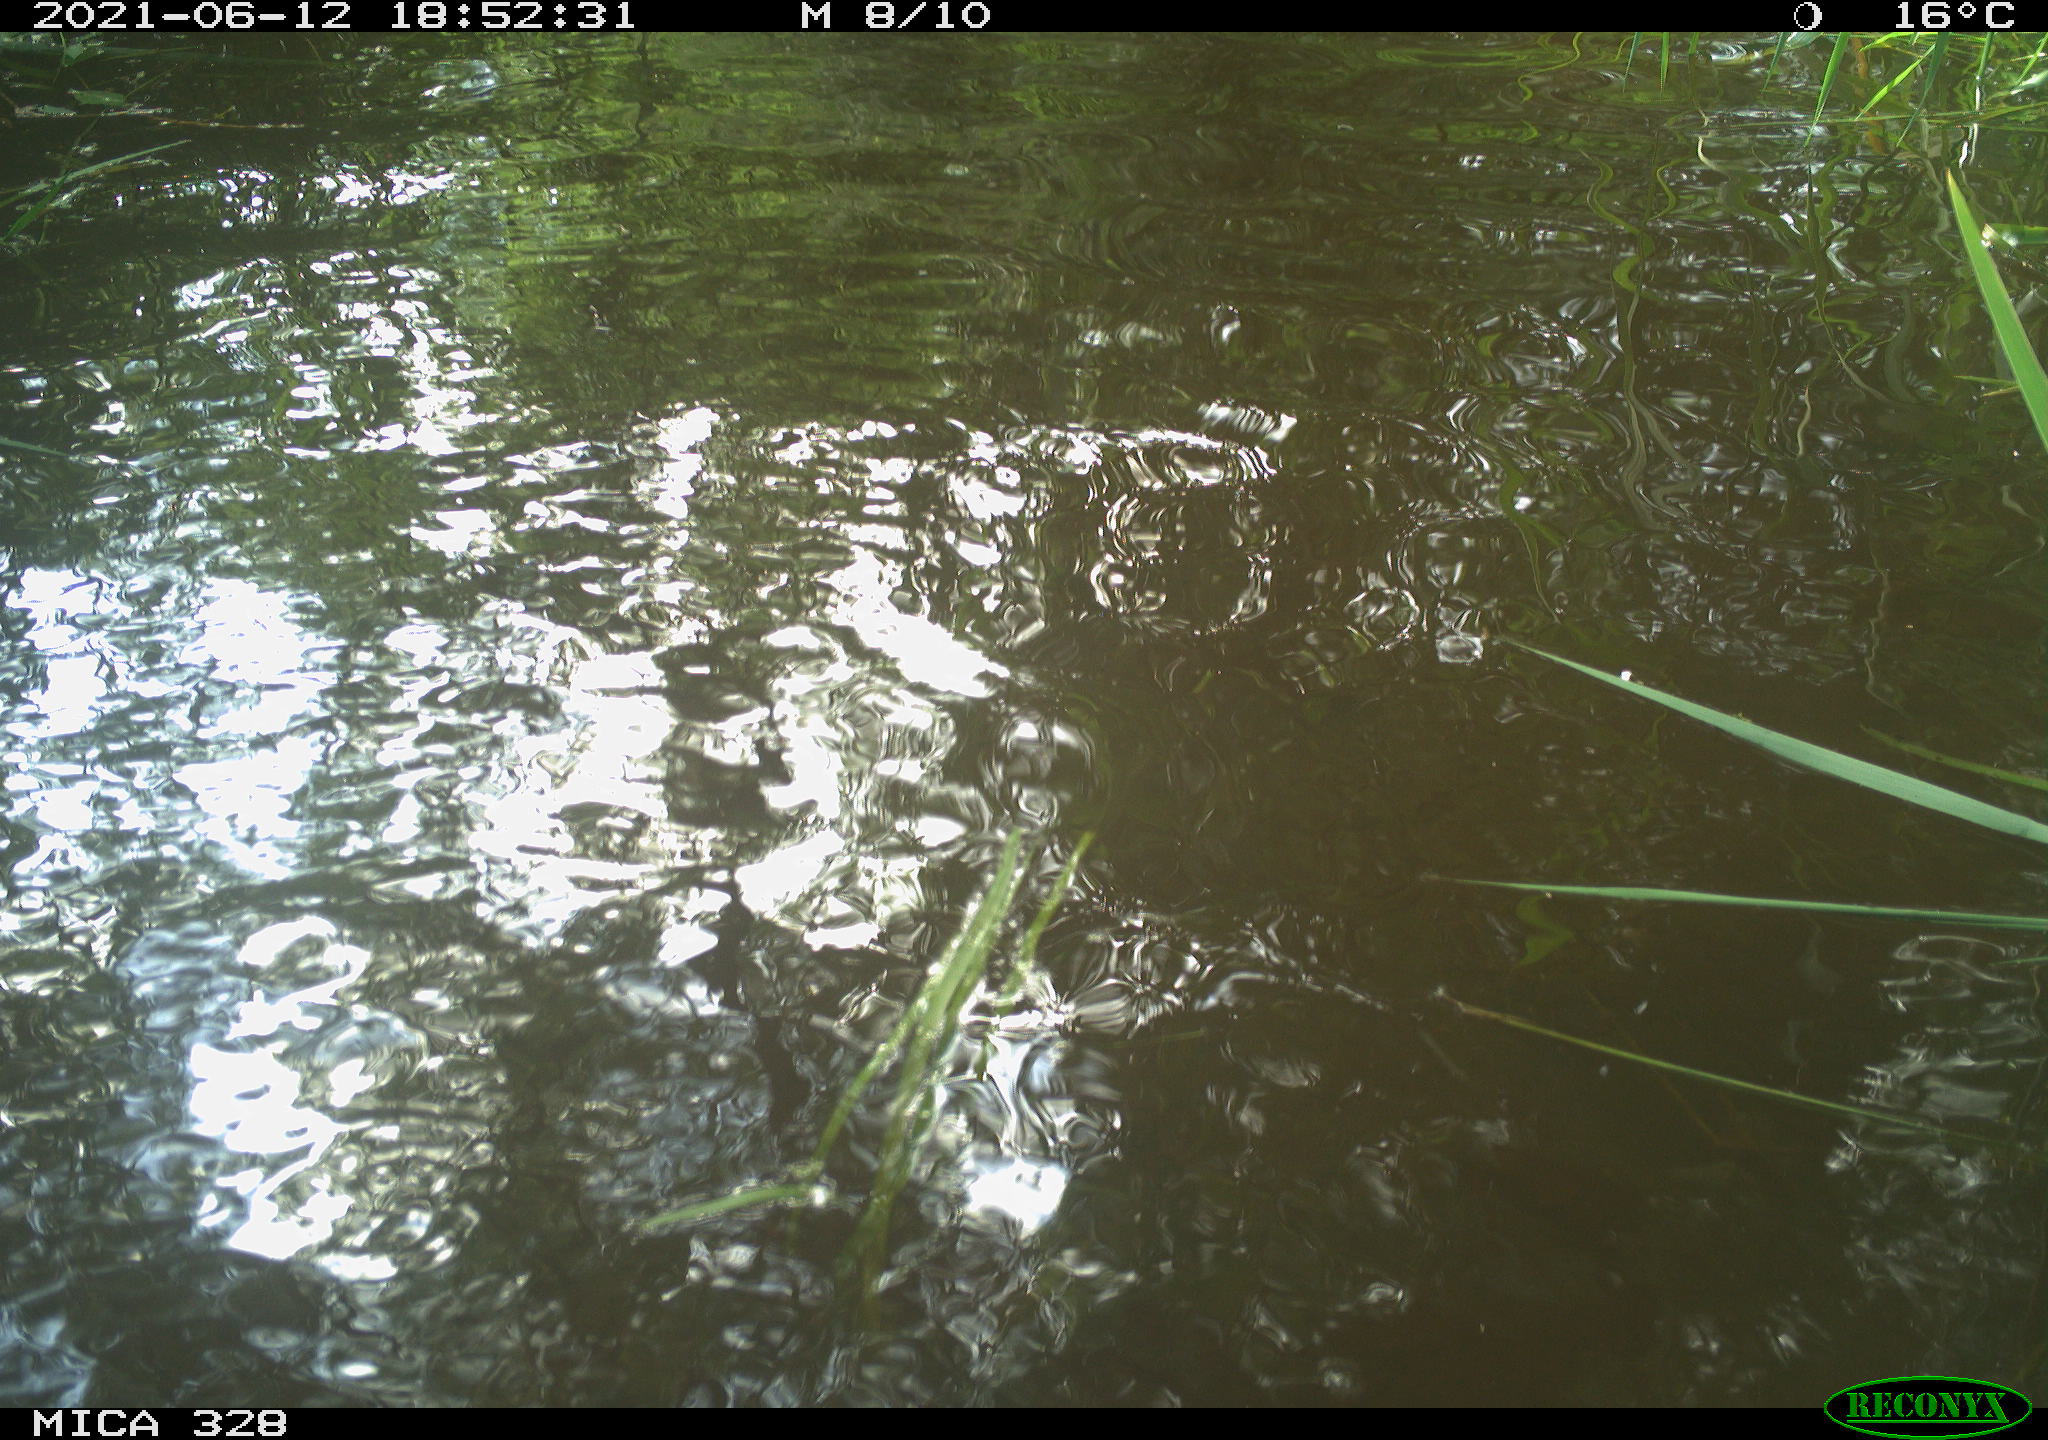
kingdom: Animalia
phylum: Chordata
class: Aves
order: Anseriformes
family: Anatidae
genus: Aix
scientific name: Aix galericulata
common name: Mandarin duck
